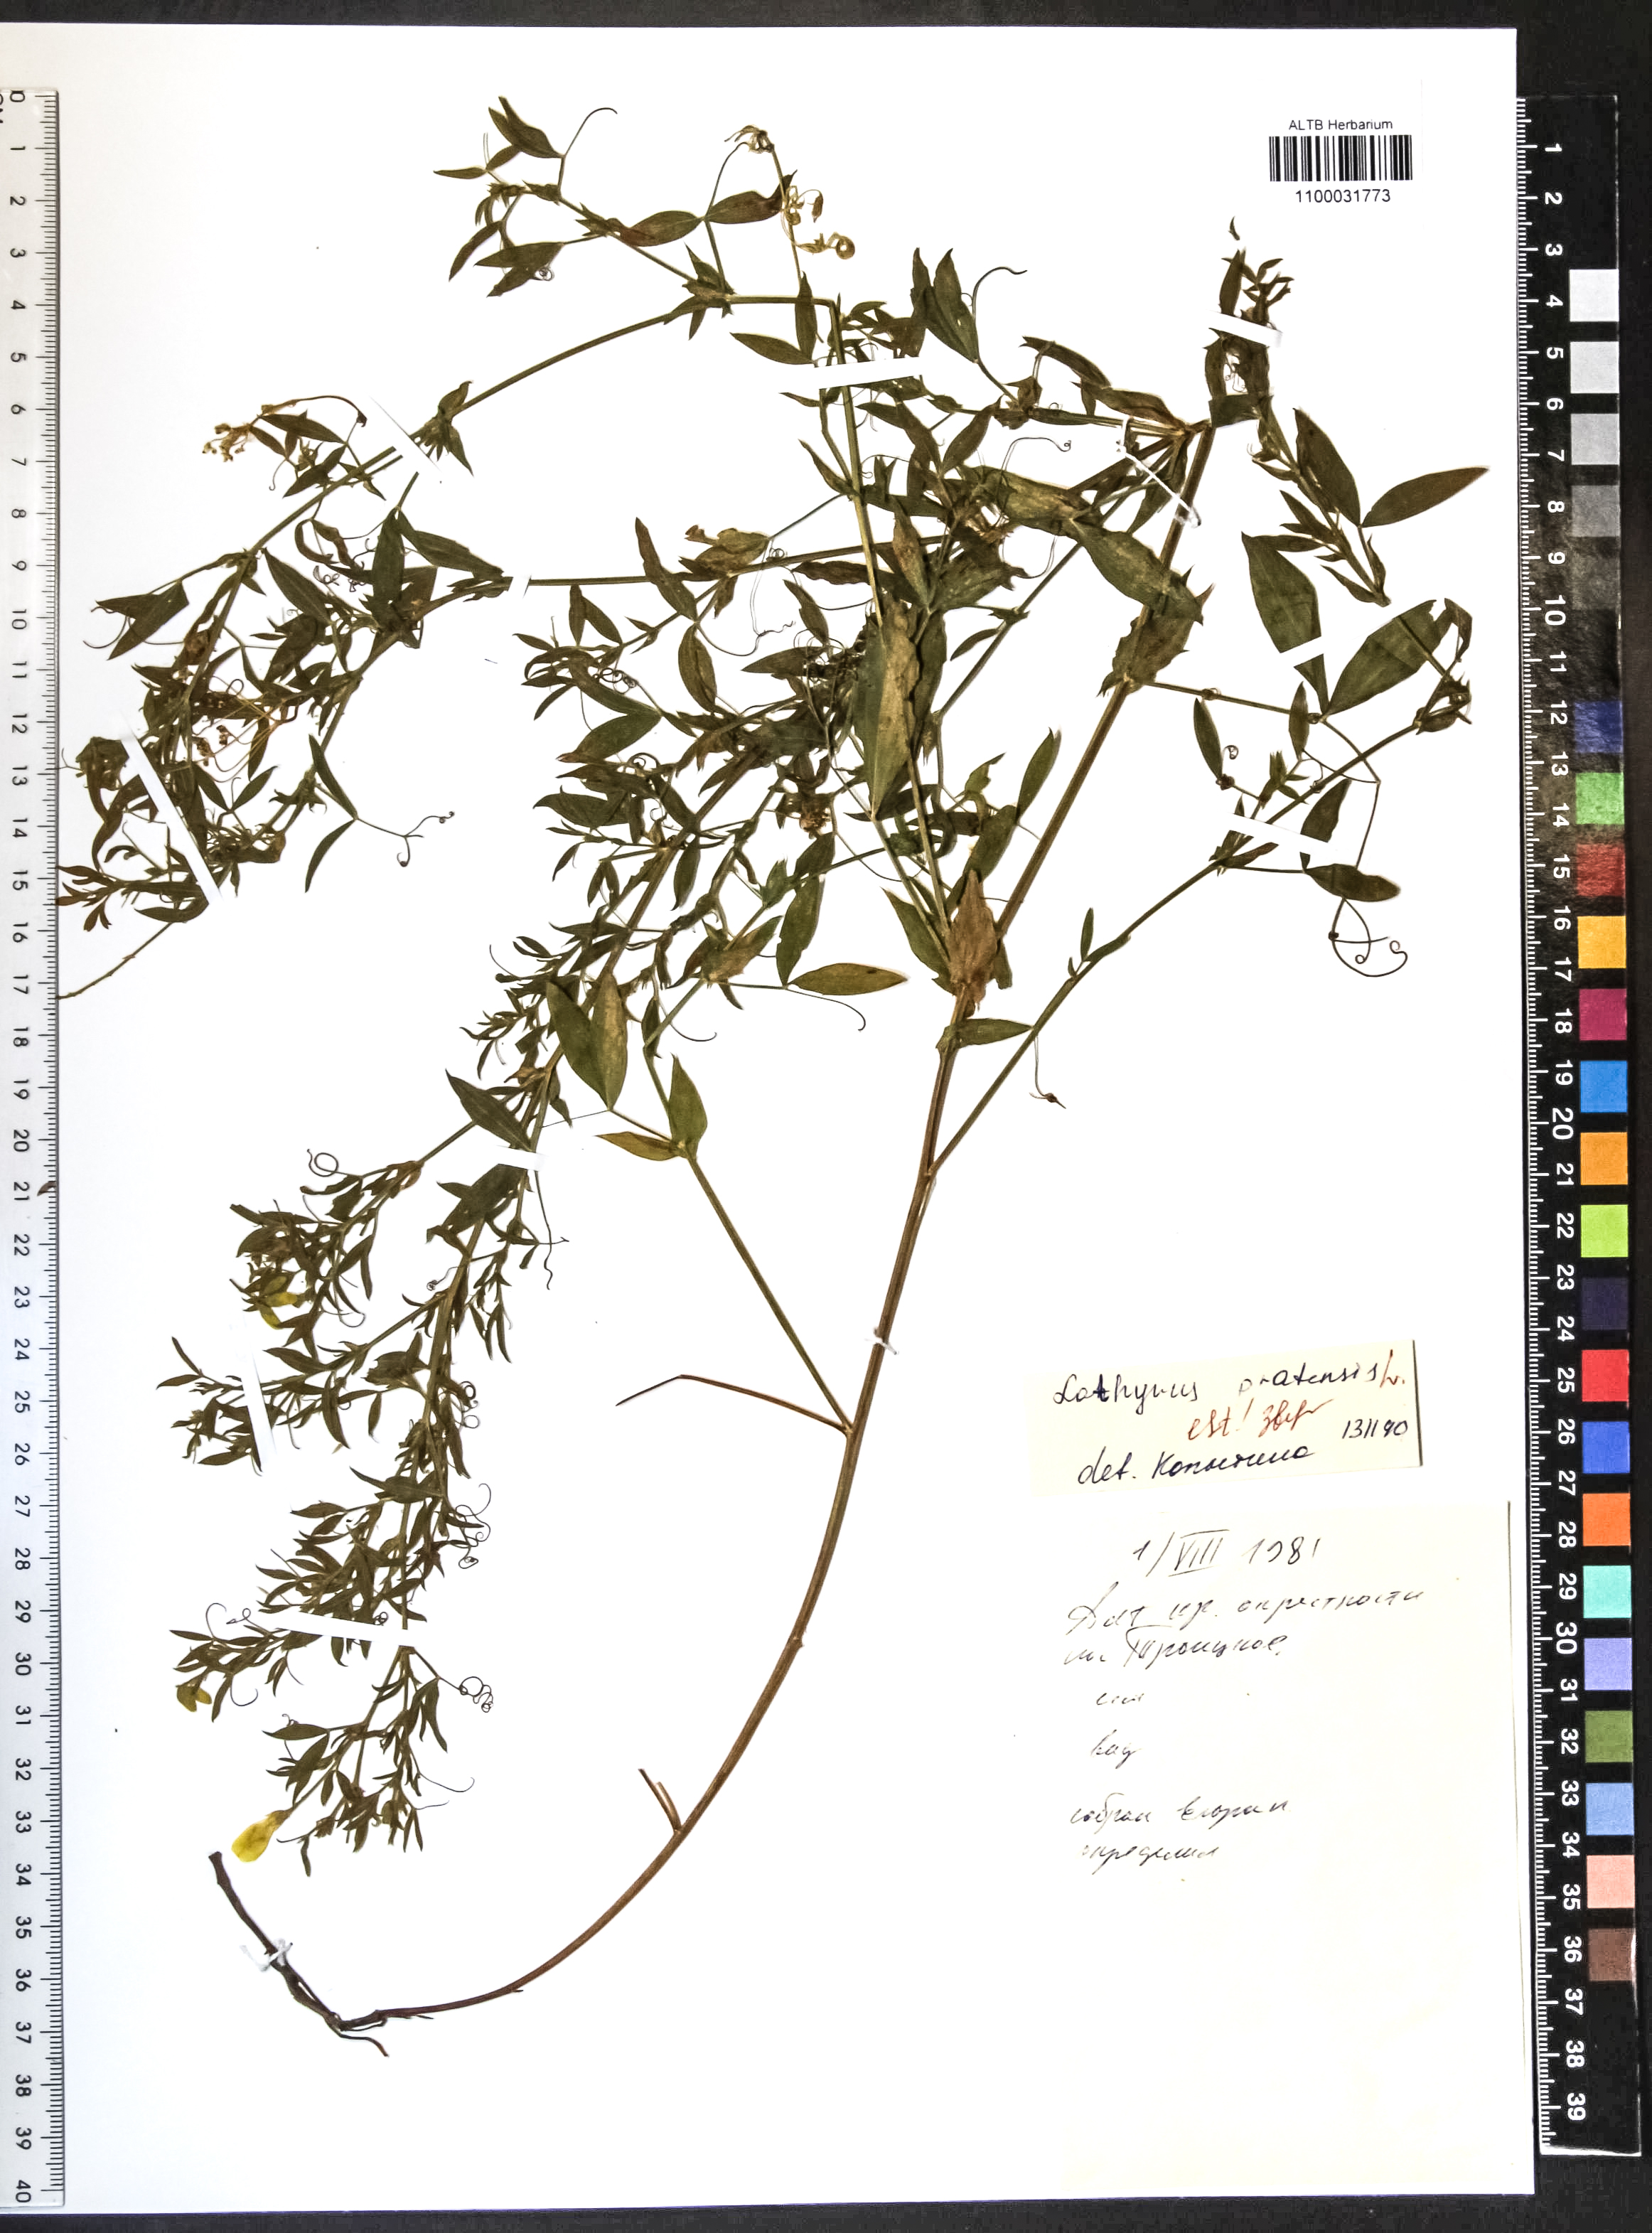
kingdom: Plantae
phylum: Tracheophyta
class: Magnoliopsida
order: Fabales
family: Fabaceae
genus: Lathyrus
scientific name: Lathyrus pratensis
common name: Meadow vetchling
